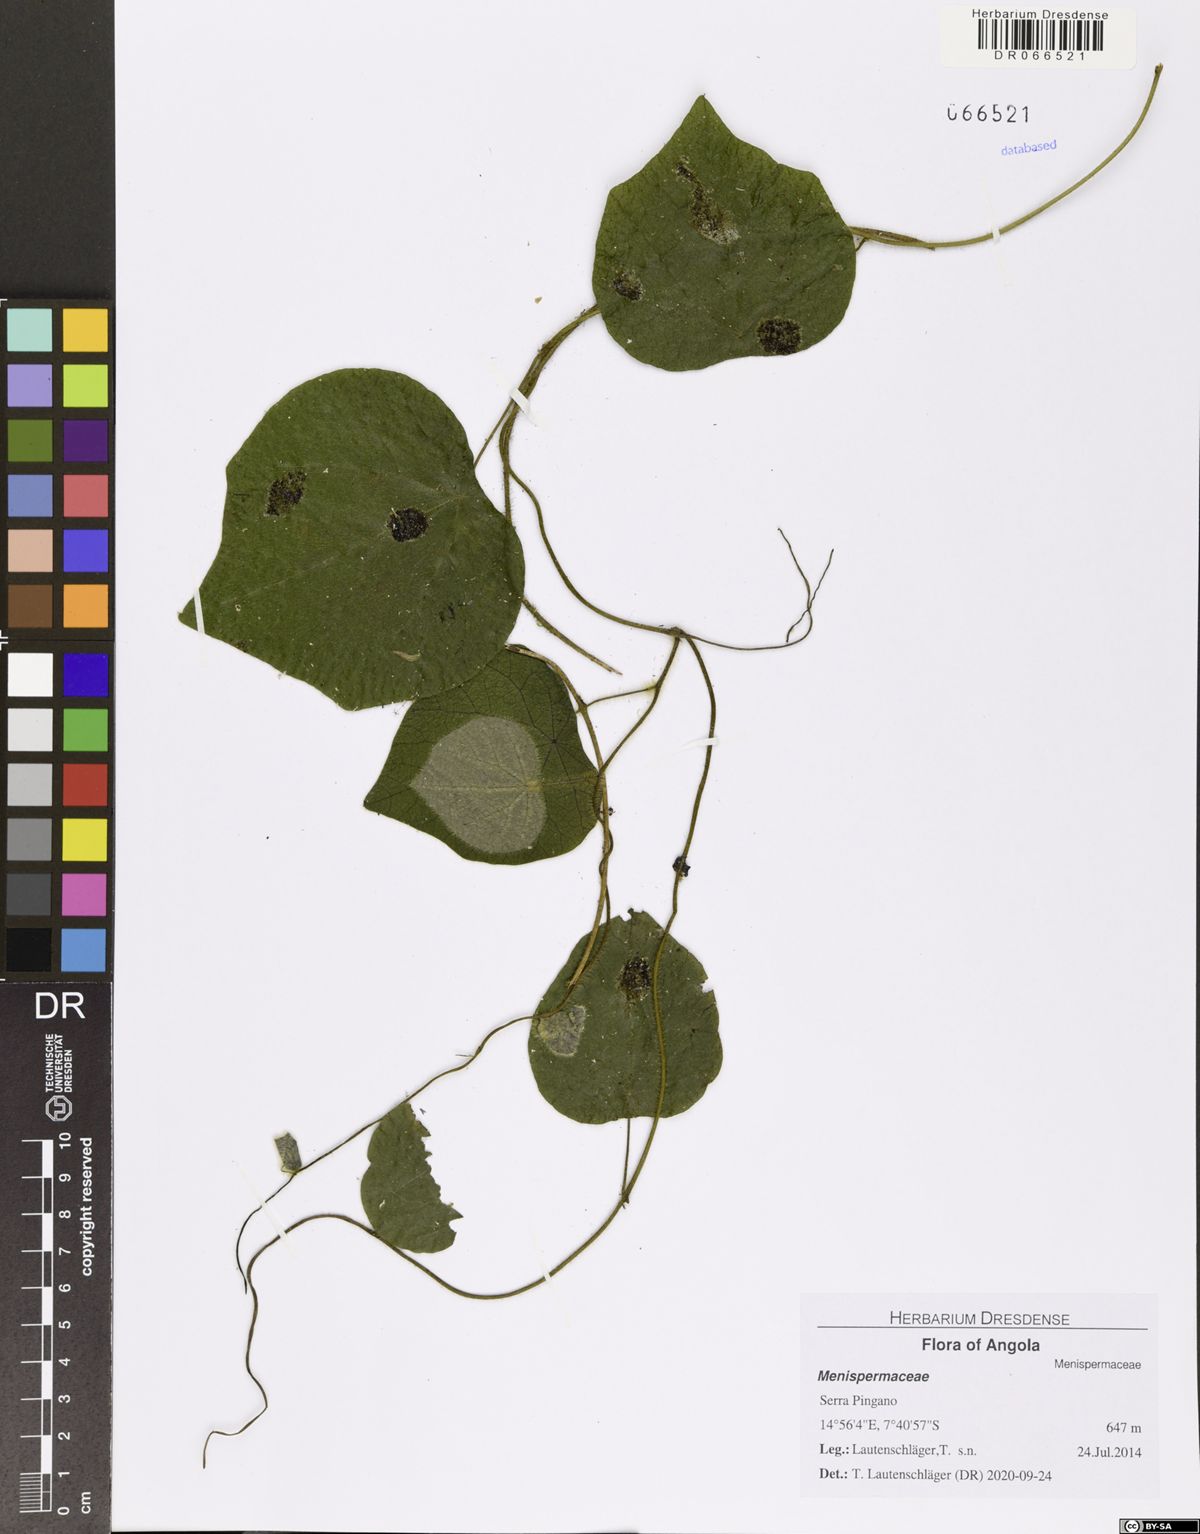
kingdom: Plantae
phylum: Tracheophyta
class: Magnoliopsida
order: Ranunculales
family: Menispermaceae
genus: Cissampelos
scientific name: Cissampelos owariensis
